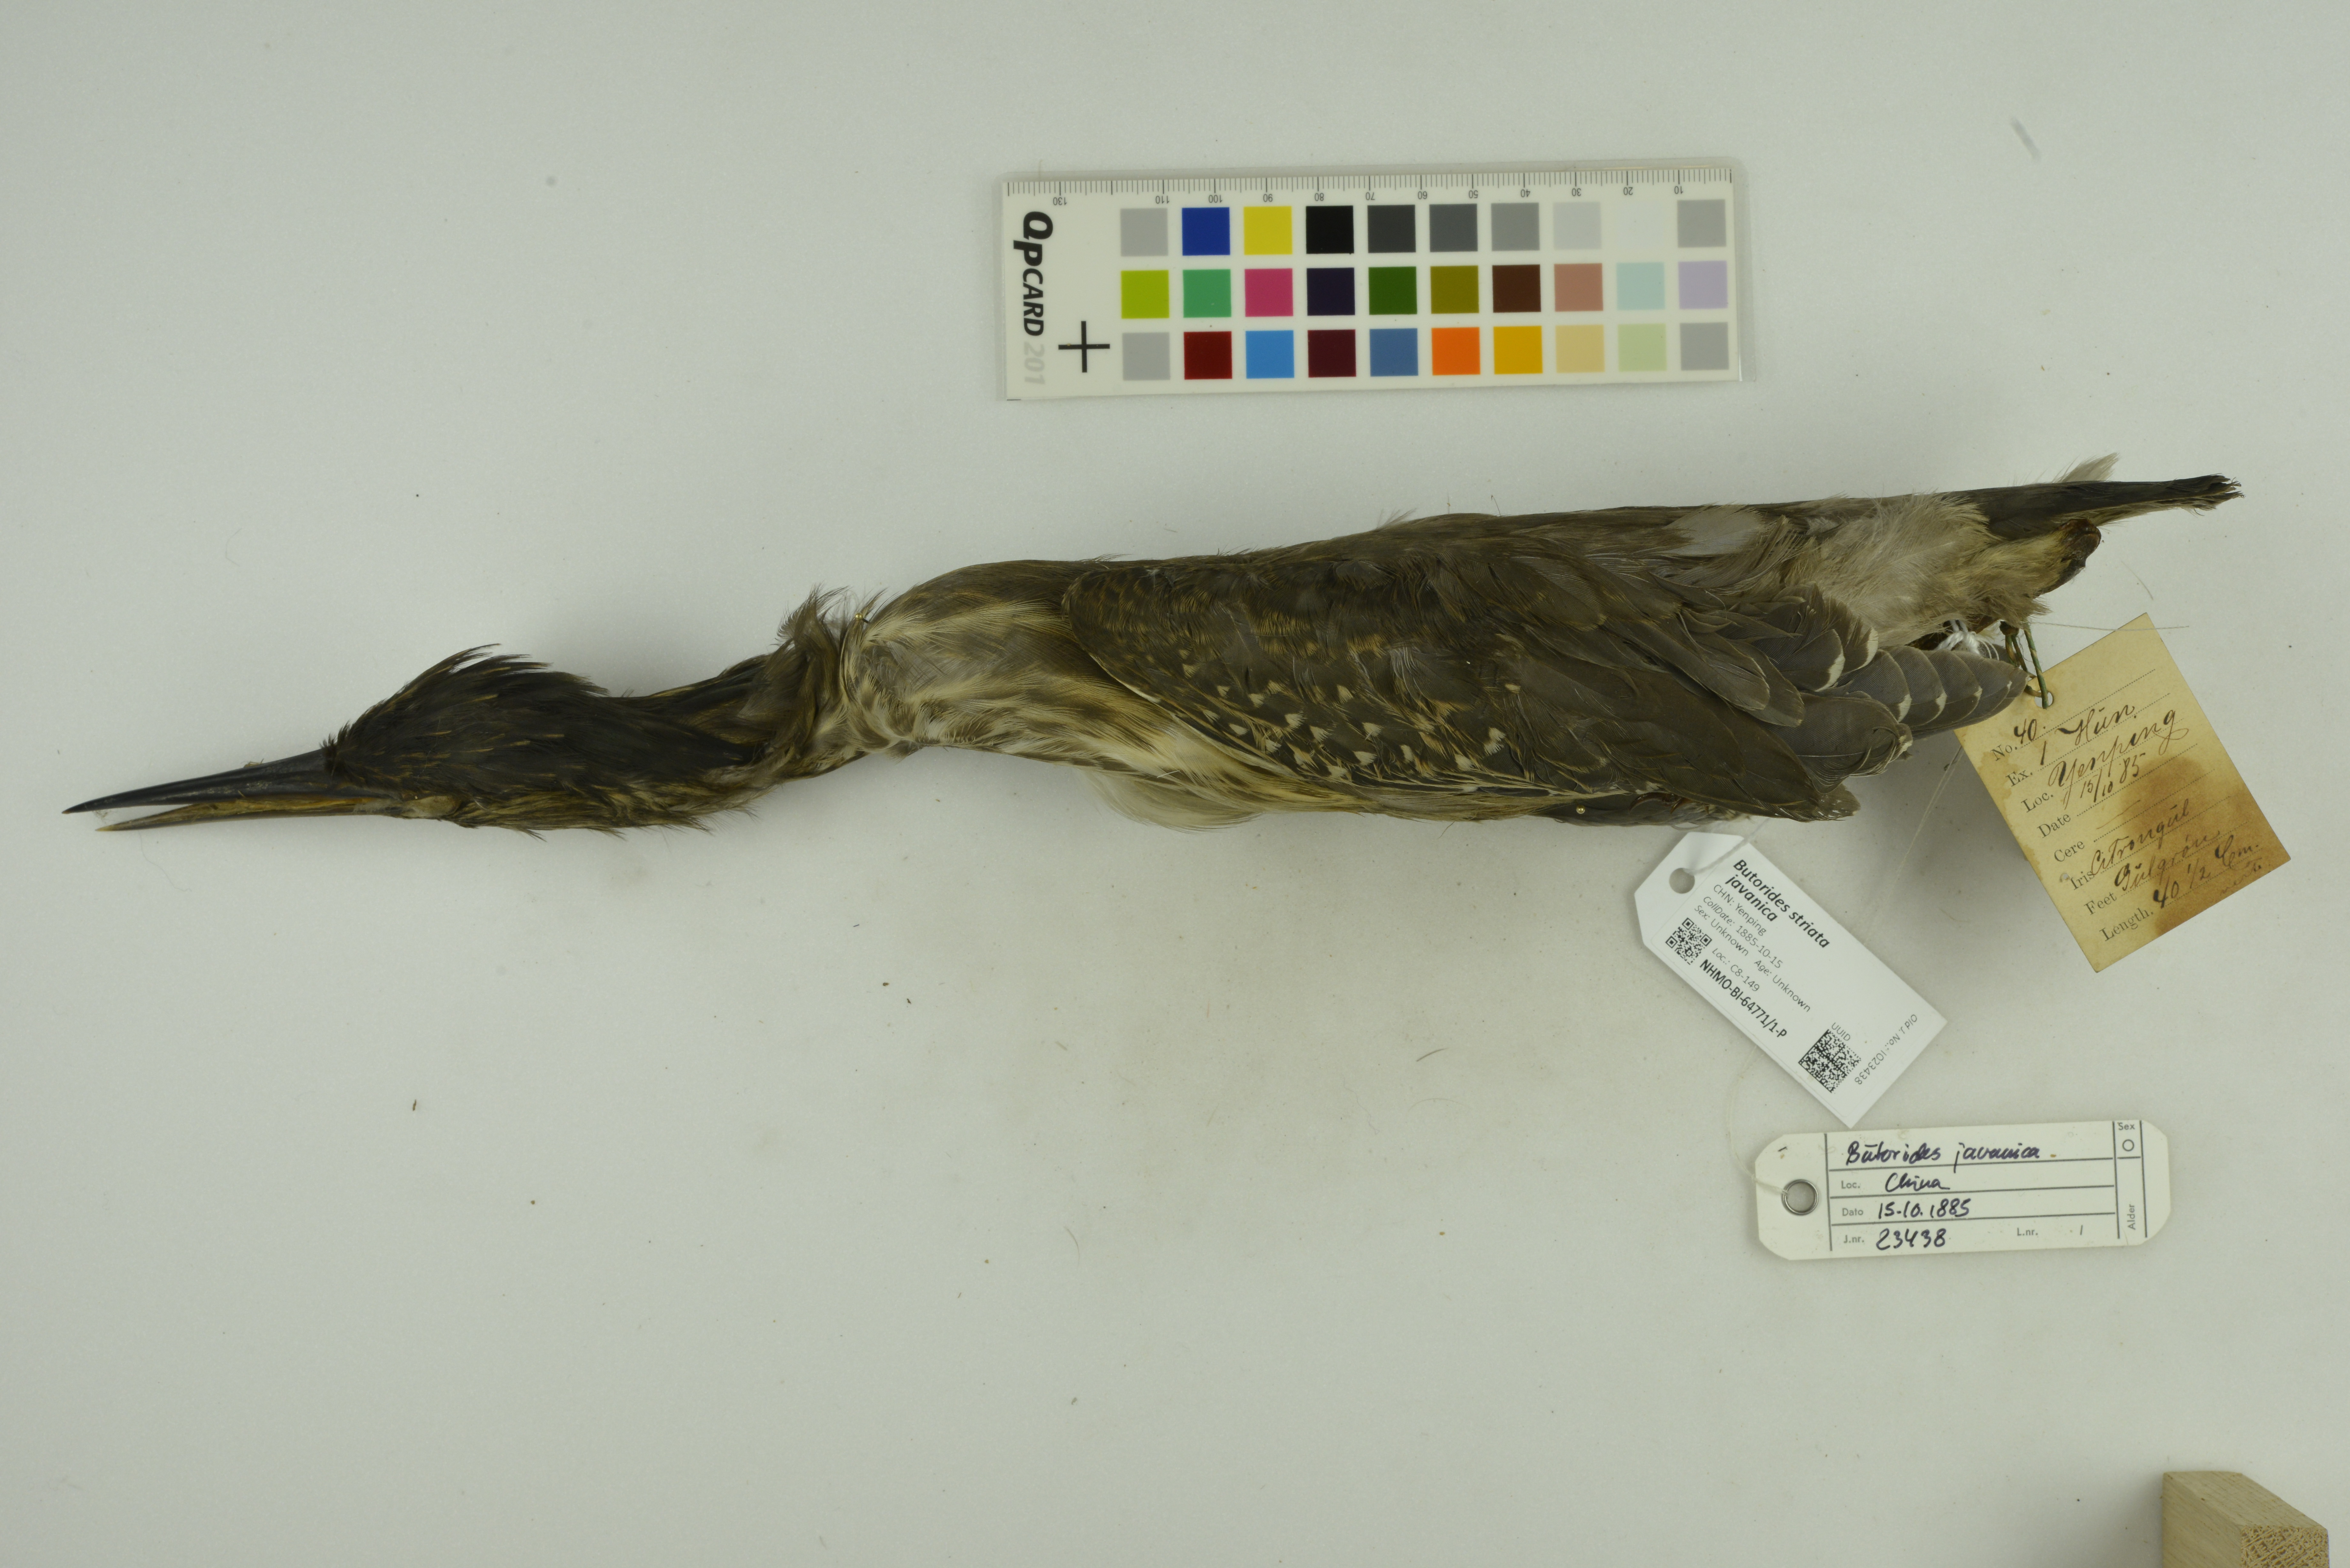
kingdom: Animalia
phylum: Chordata
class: Aves
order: Pelecaniformes
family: Ardeidae
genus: Butorides
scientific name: Butorides striata
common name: Striated heron
